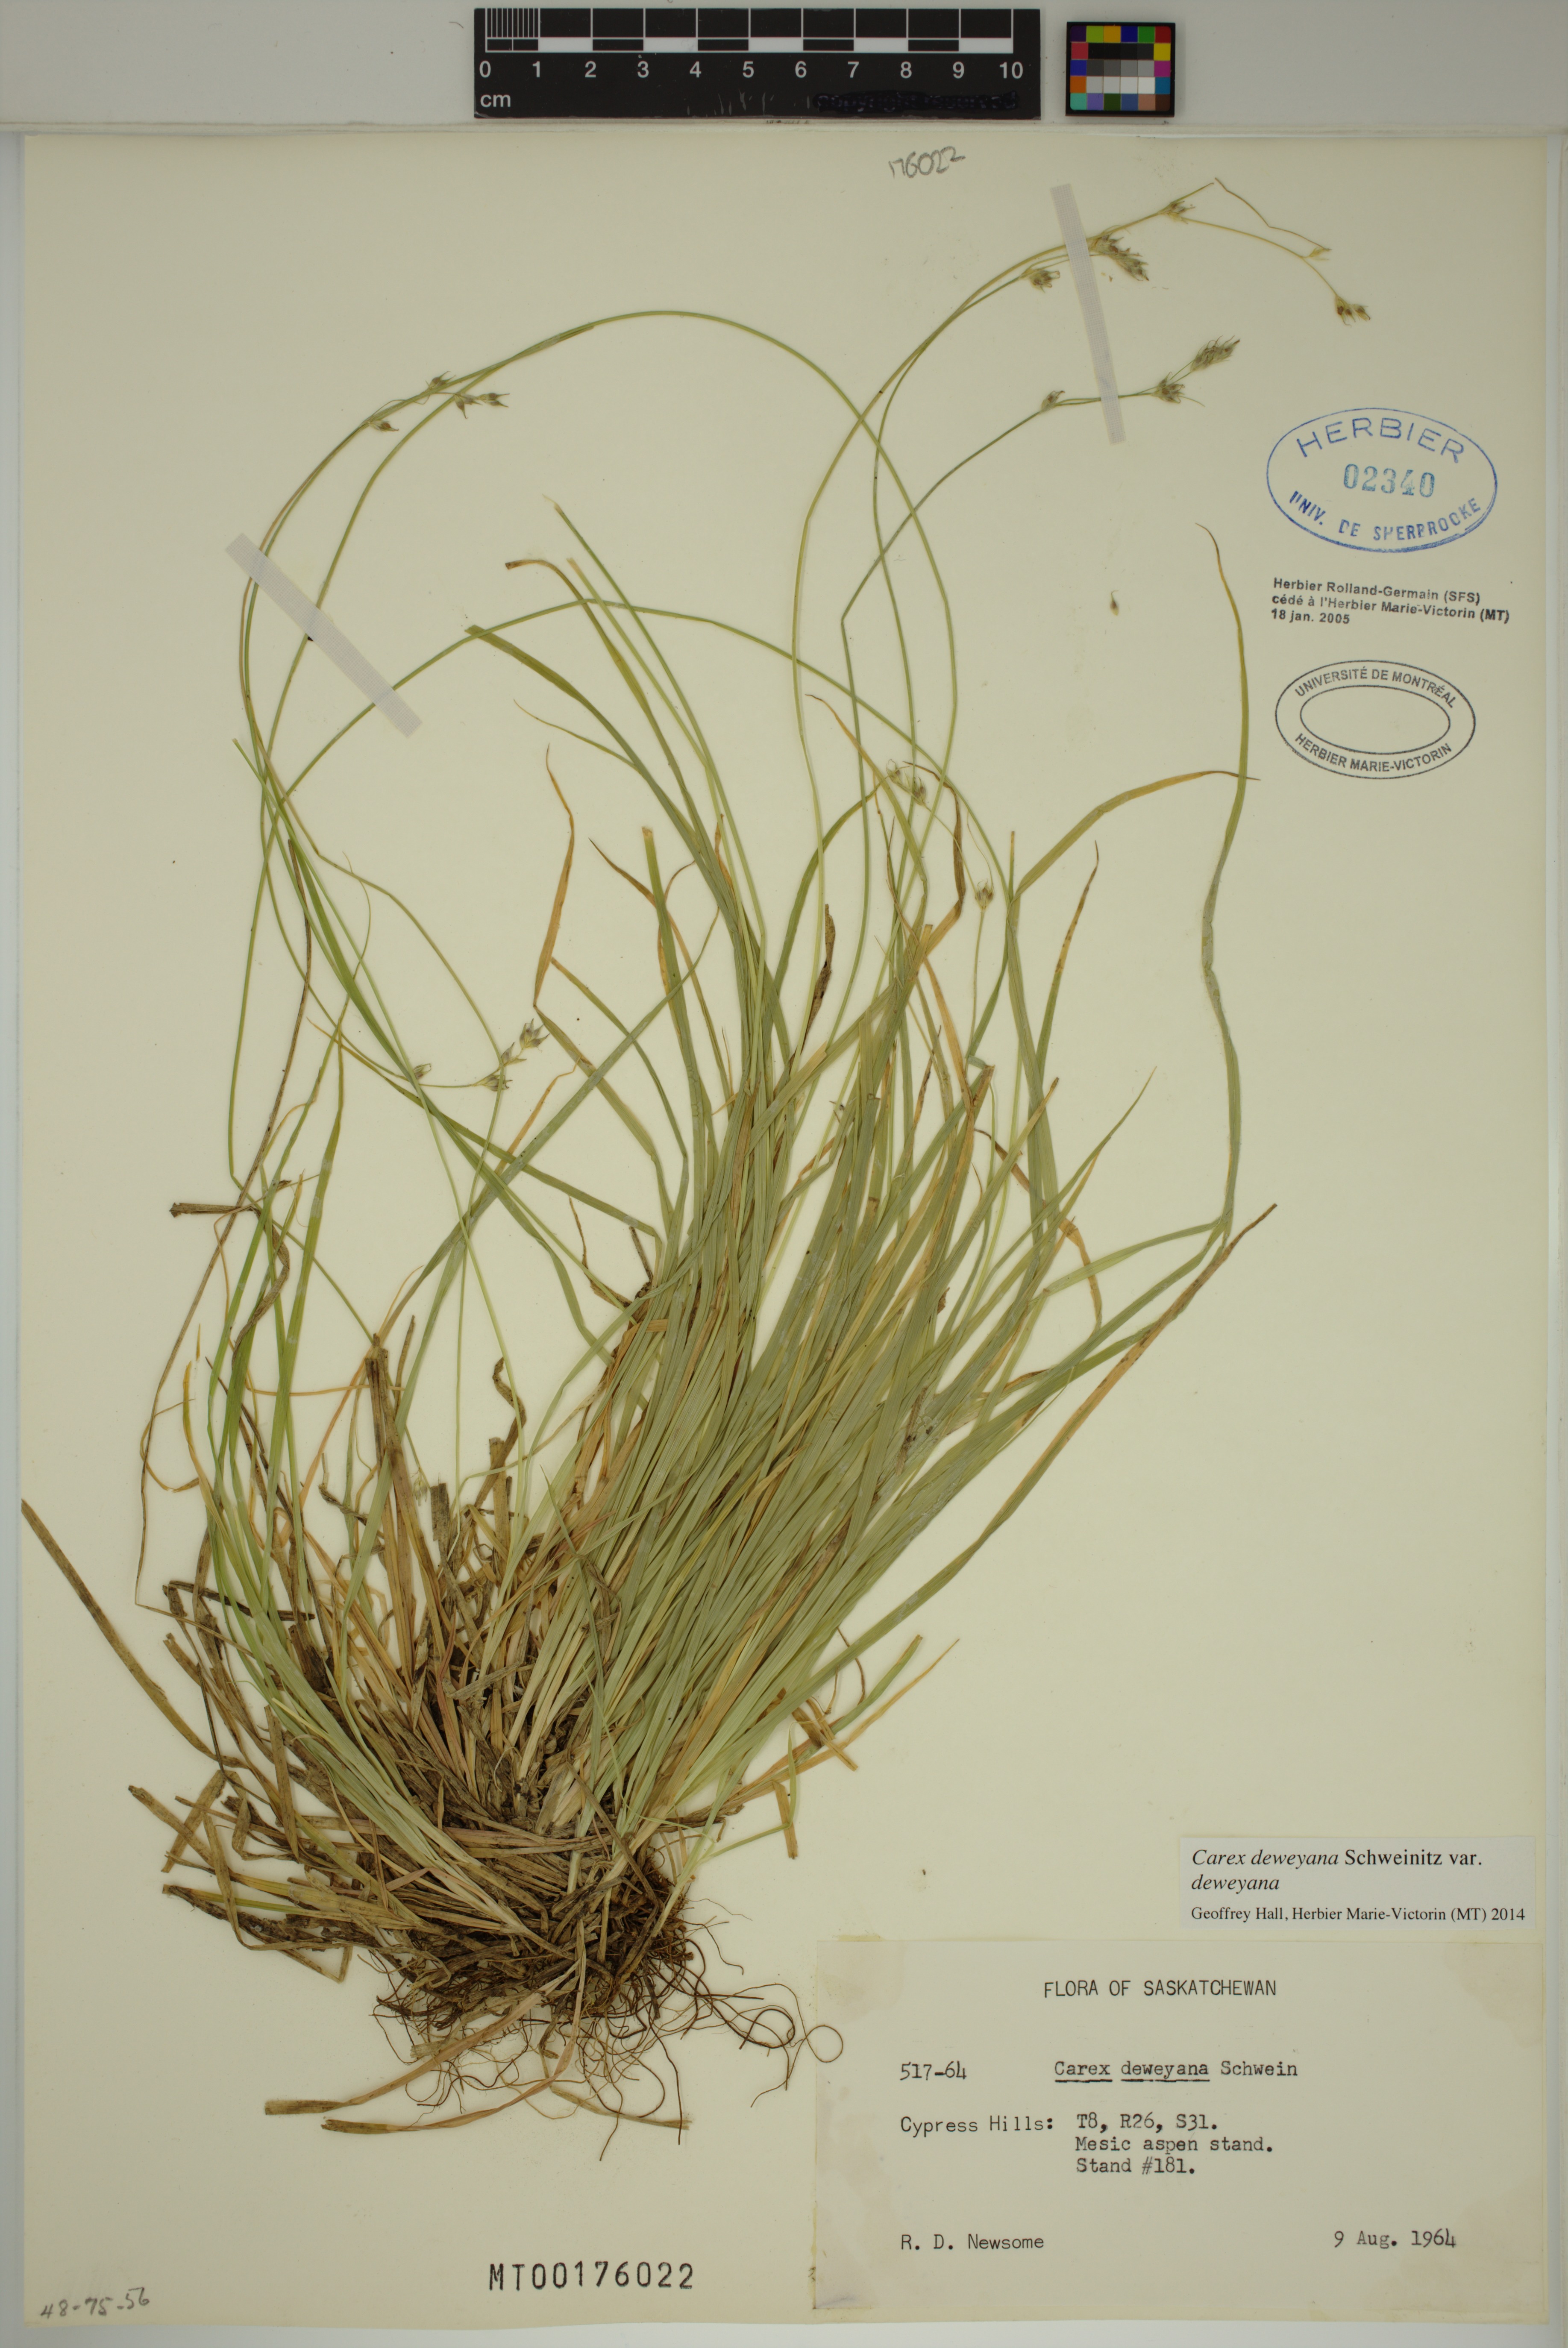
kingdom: Plantae
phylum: Tracheophyta
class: Liliopsida
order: Poales
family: Cyperaceae
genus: Carex
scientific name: Carex deweyana
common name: Dewey's sedge
